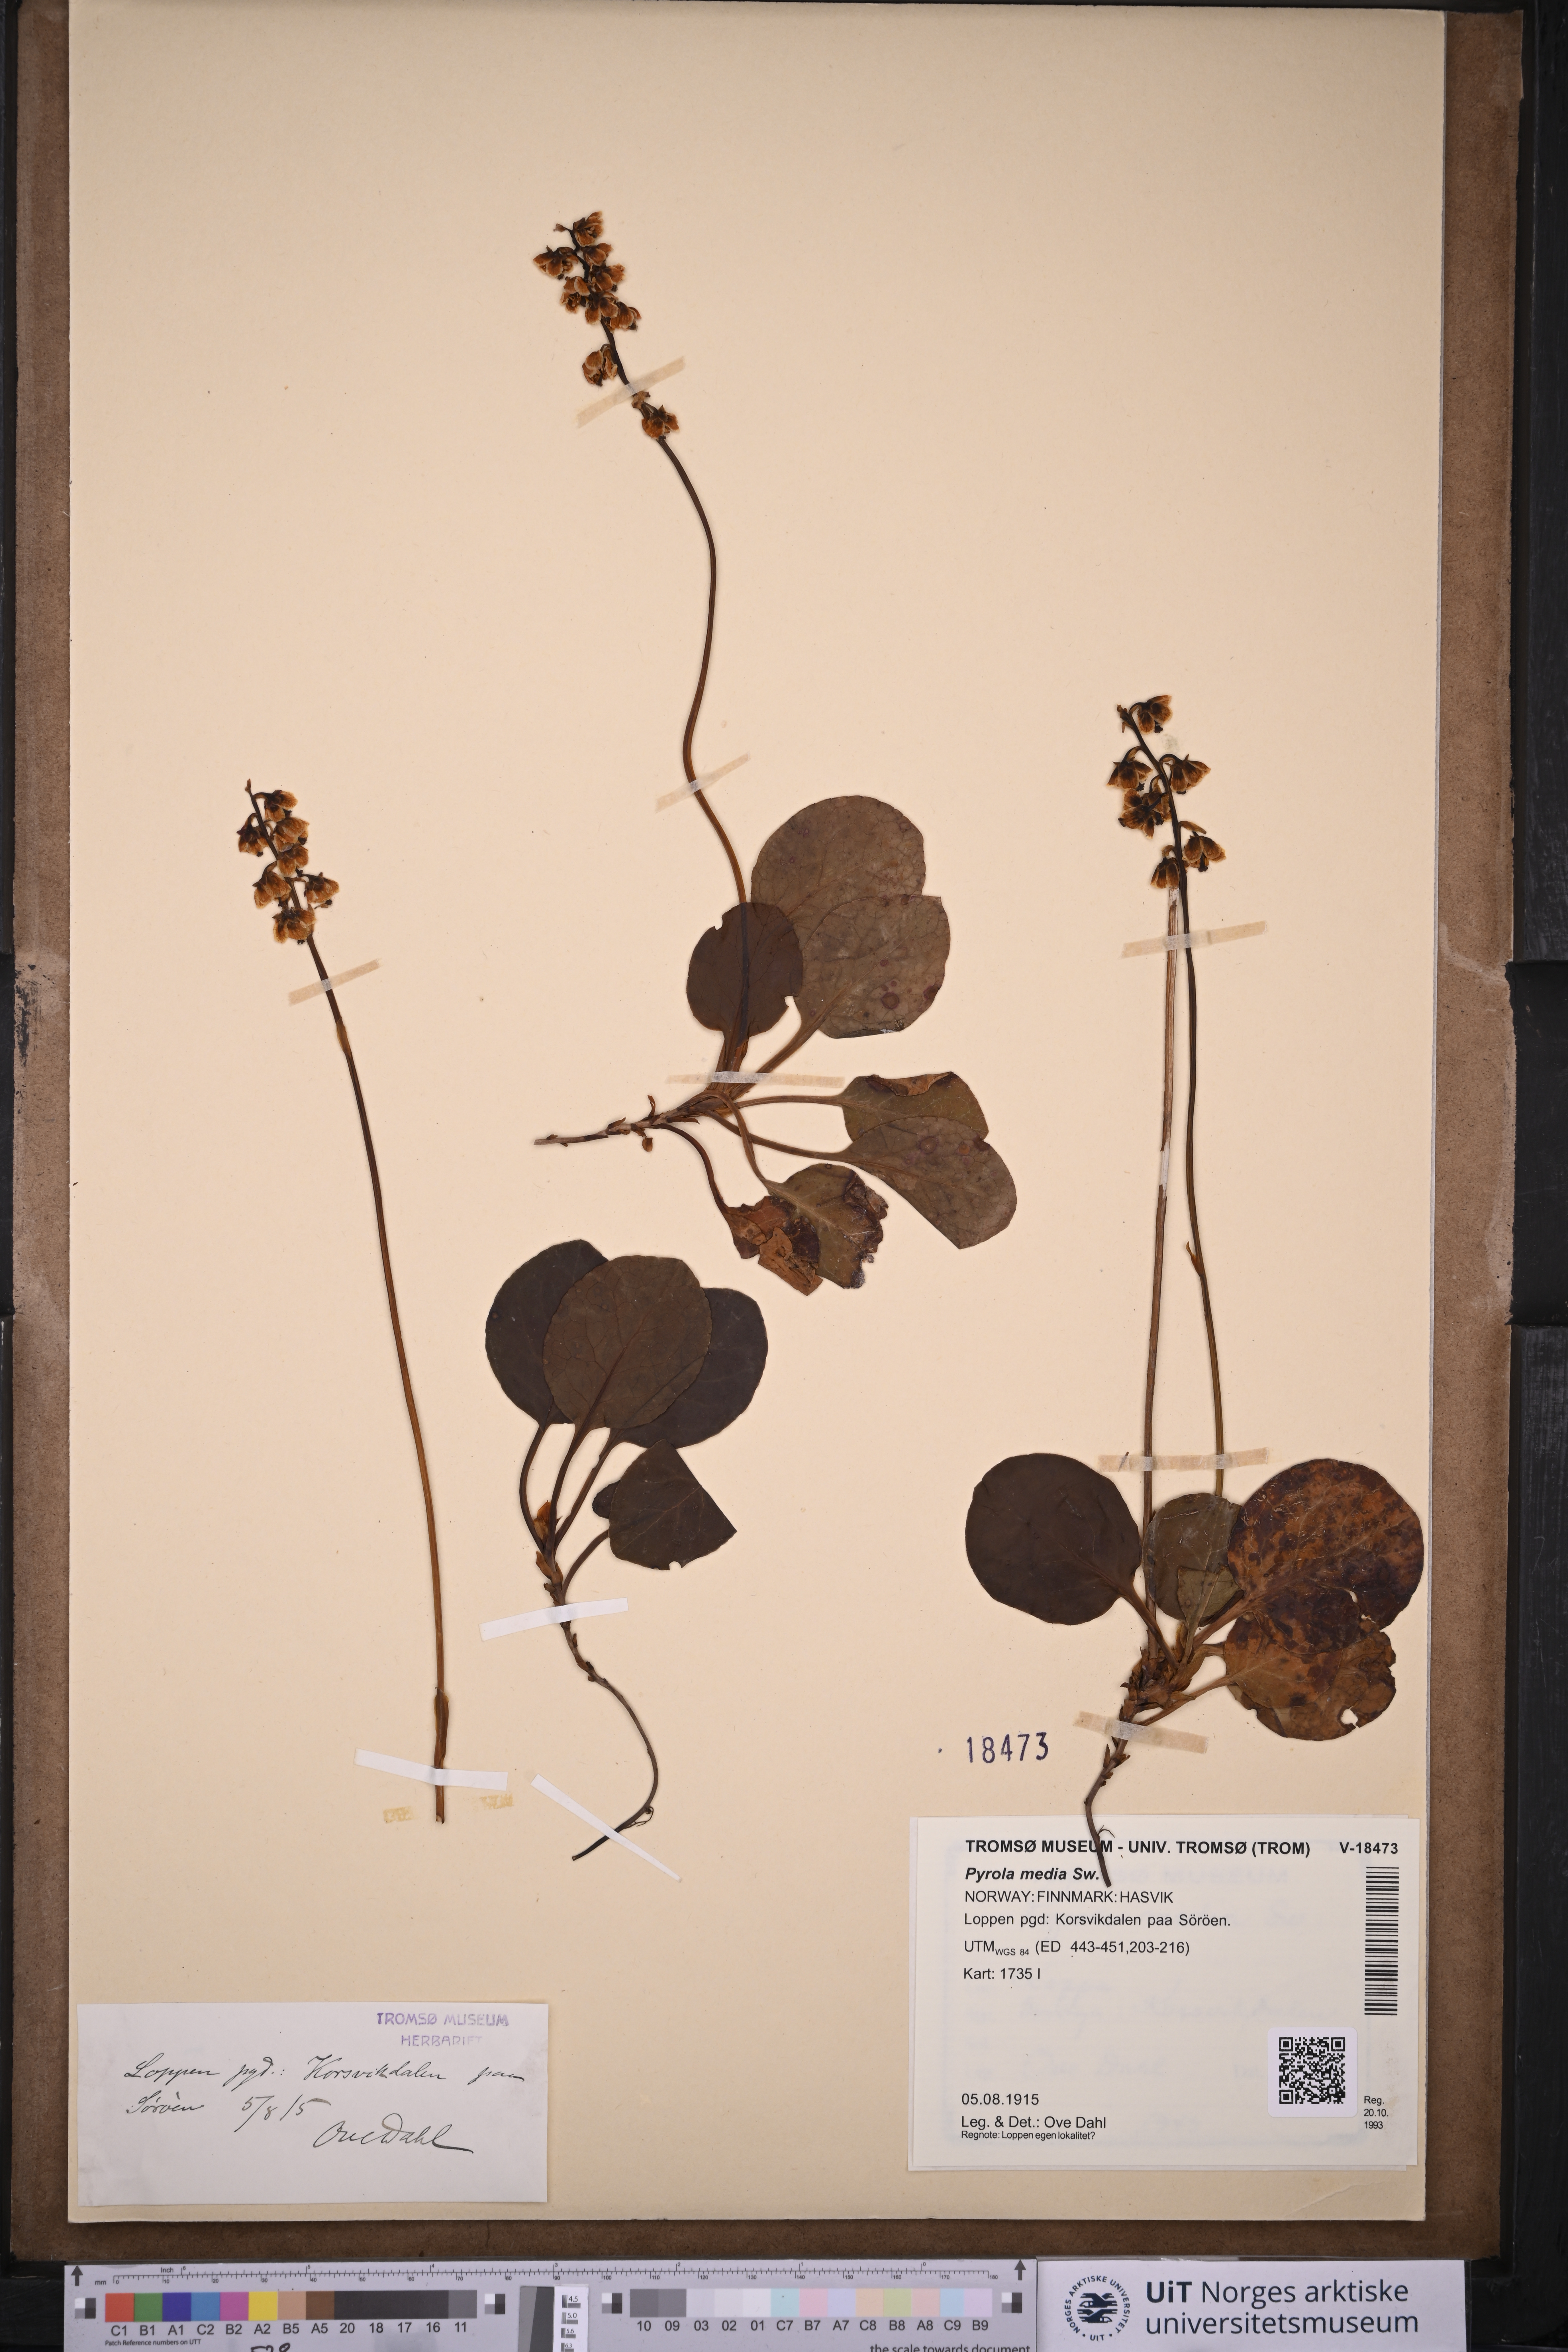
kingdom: Plantae
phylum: Tracheophyta
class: Magnoliopsida
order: Ericales
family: Ericaceae
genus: Pyrola
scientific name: Pyrola media
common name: Intermediate wintergreen
